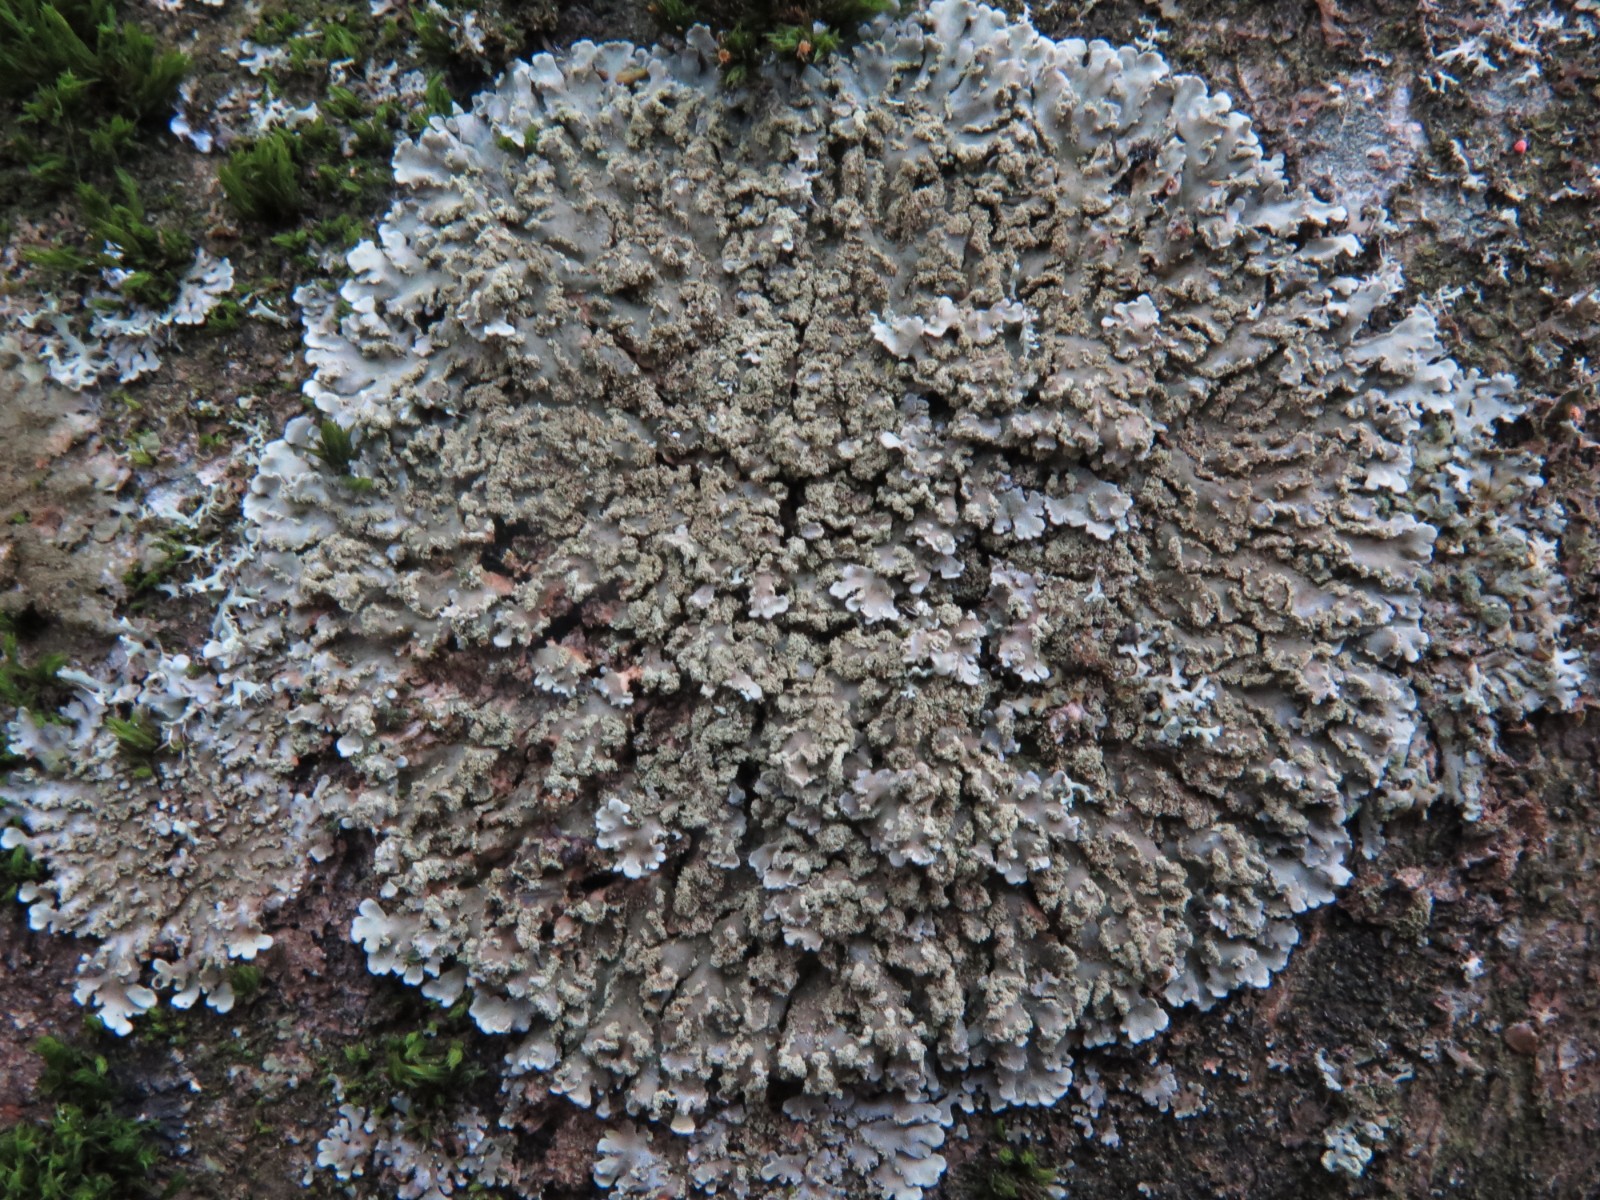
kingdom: Fungi
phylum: Ascomycota
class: Lecanoromycetes
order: Caliciales
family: Physciaceae
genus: Physconia
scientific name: Physconia enteroxantha
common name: grynet dugrosetlav
